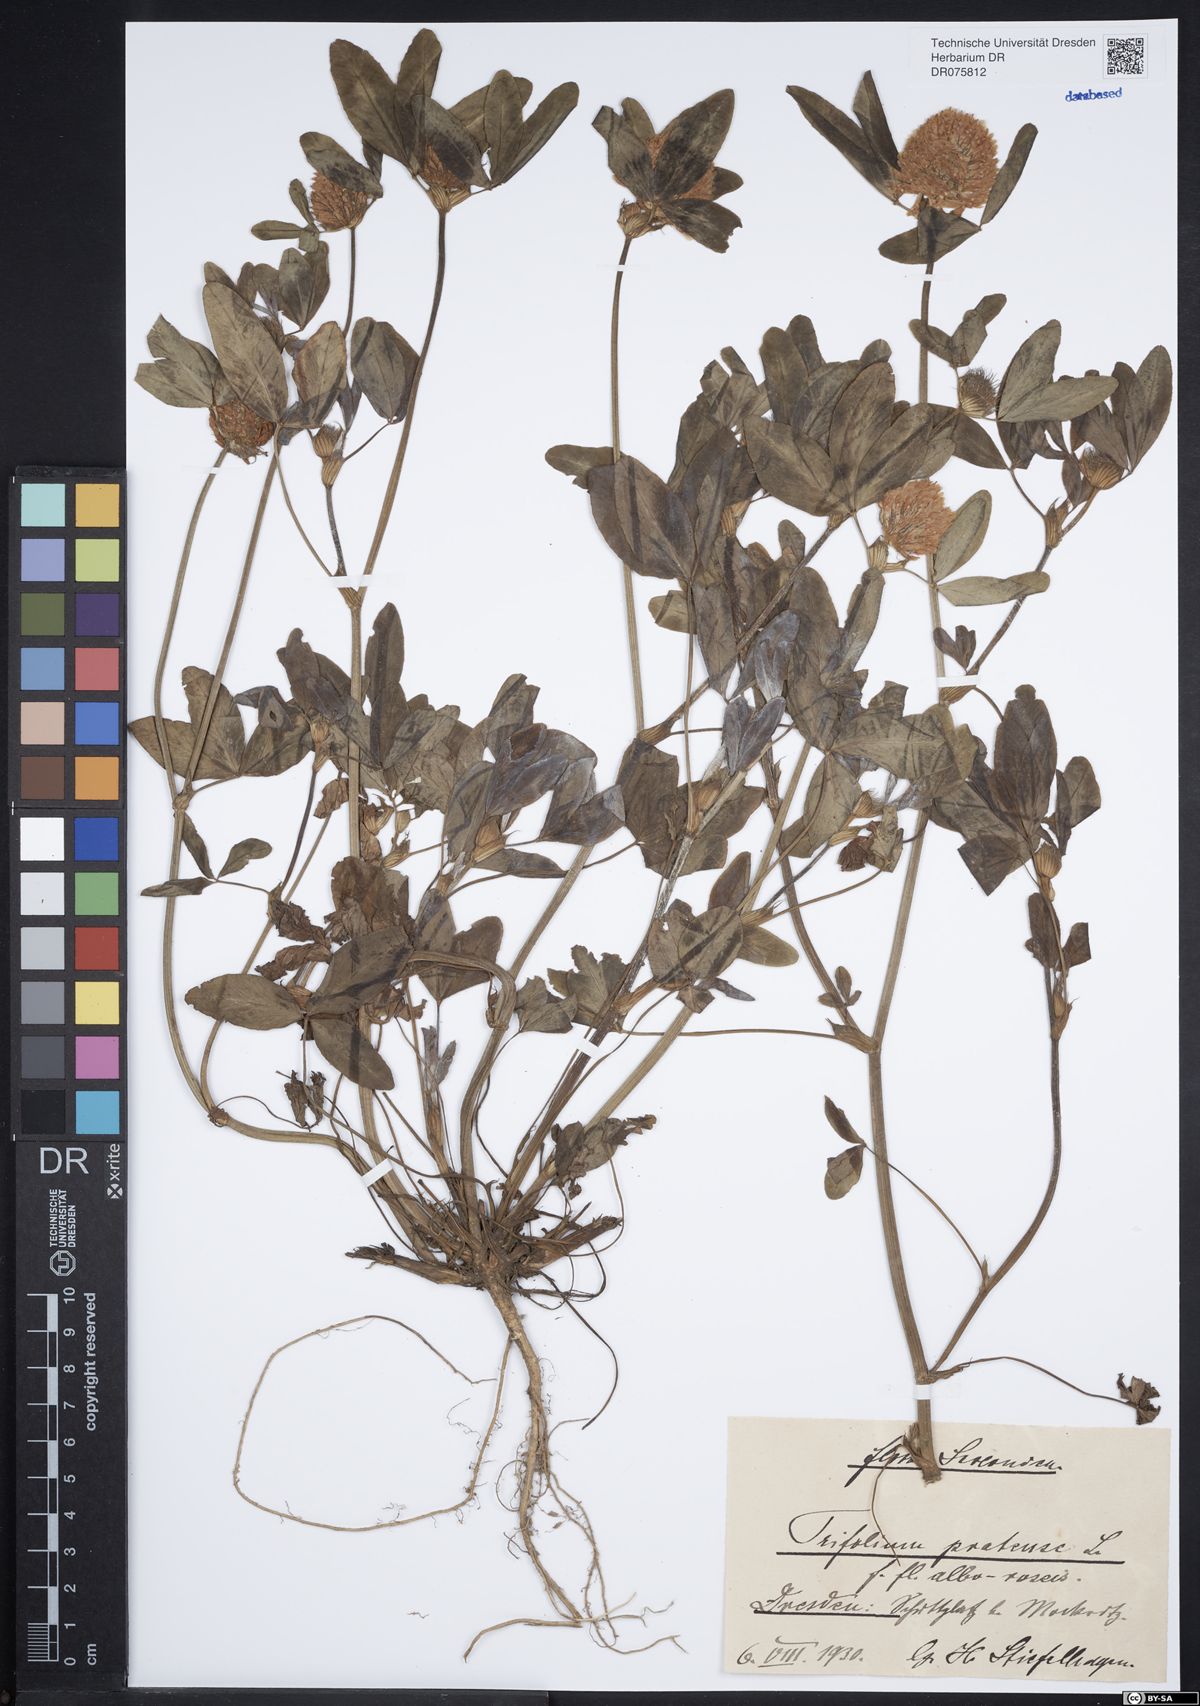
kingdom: Plantae
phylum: Tracheophyta
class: Magnoliopsida
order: Fabales
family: Fabaceae
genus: Trifolium
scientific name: Trifolium pratense
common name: Red clover
